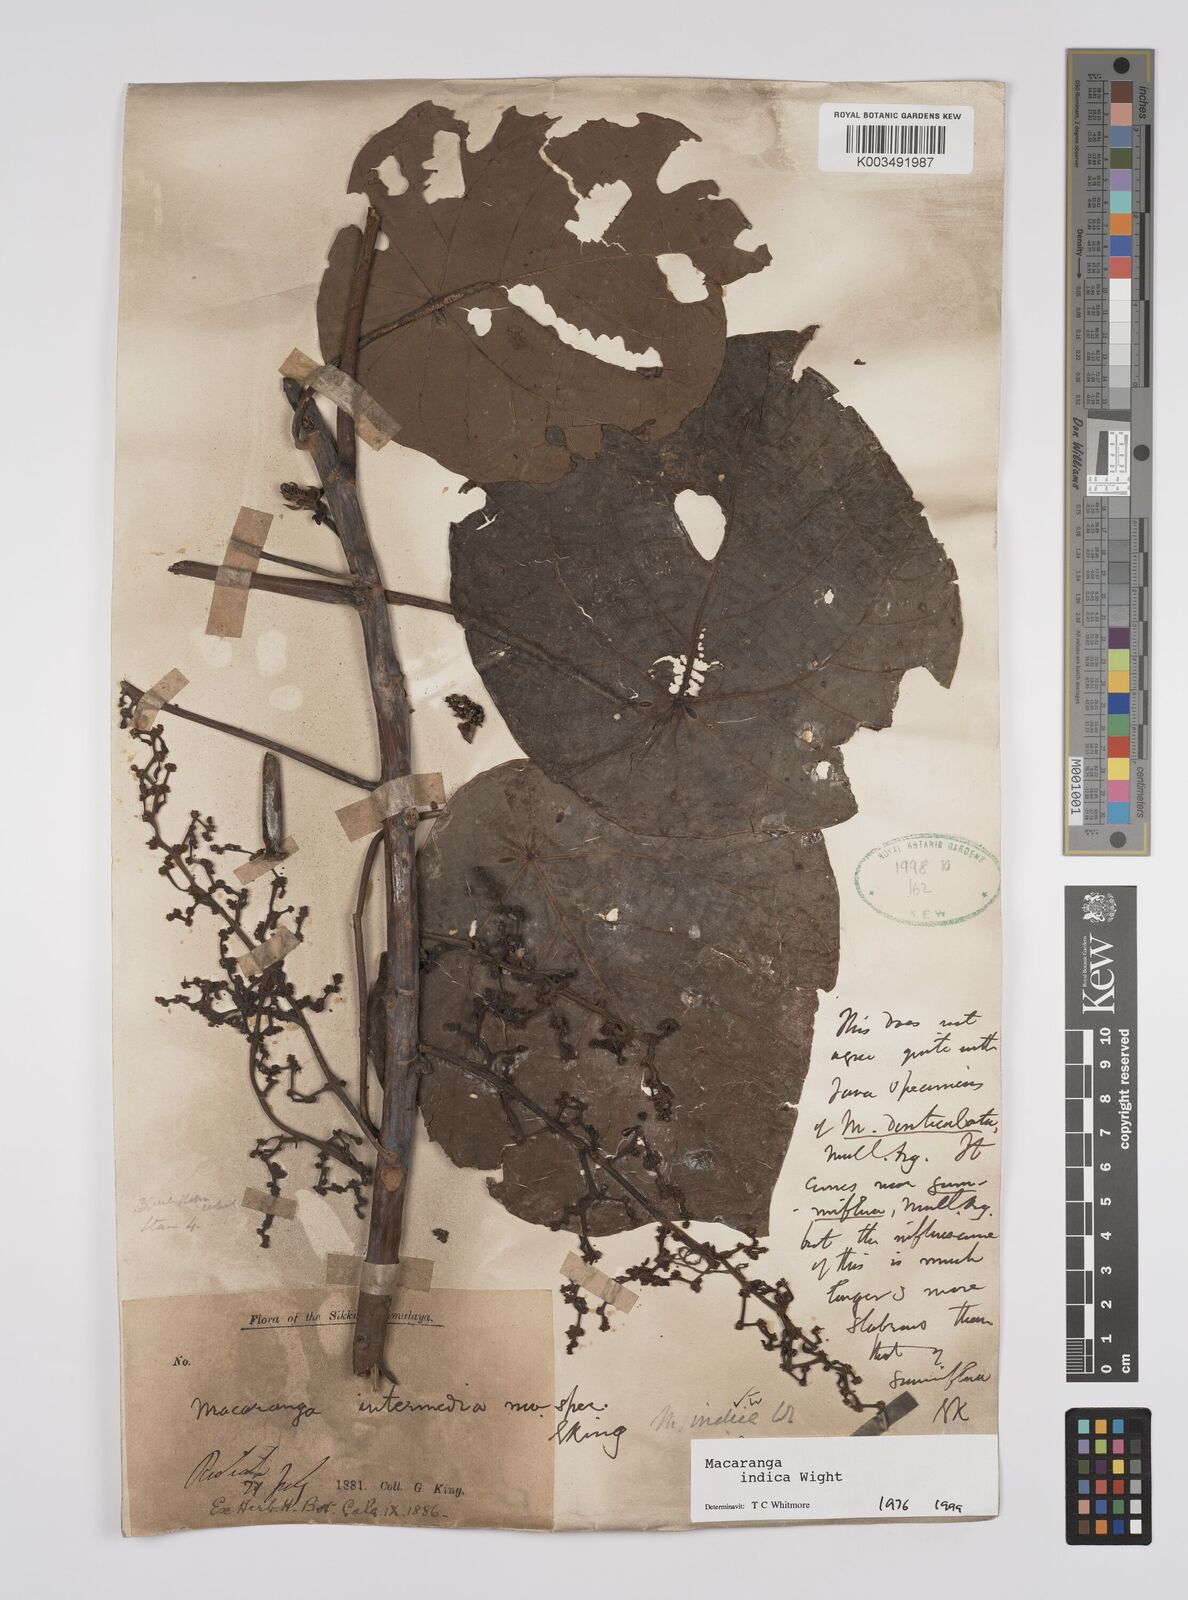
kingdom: Plantae
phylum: Tracheophyta
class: Magnoliopsida
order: Malpighiales
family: Euphorbiaceae
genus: Macaranga
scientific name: Macaranga indica
